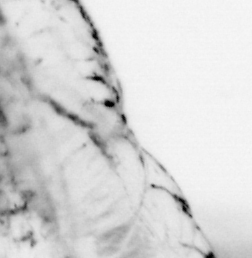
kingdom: Animalia
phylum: Chaetognatha
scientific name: Chaetognatha
